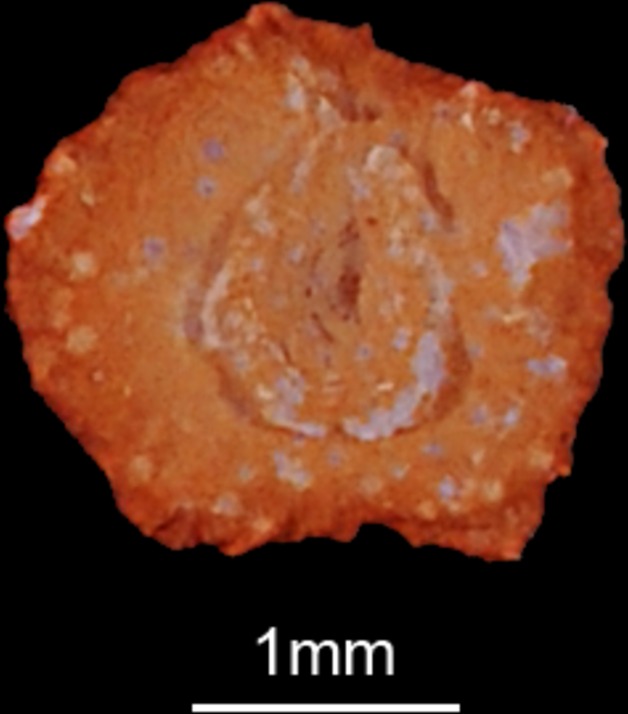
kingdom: Animalia
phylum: Chordata
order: Cypriniformes
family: Cyprinidae
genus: Abramis
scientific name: Abramis brama
